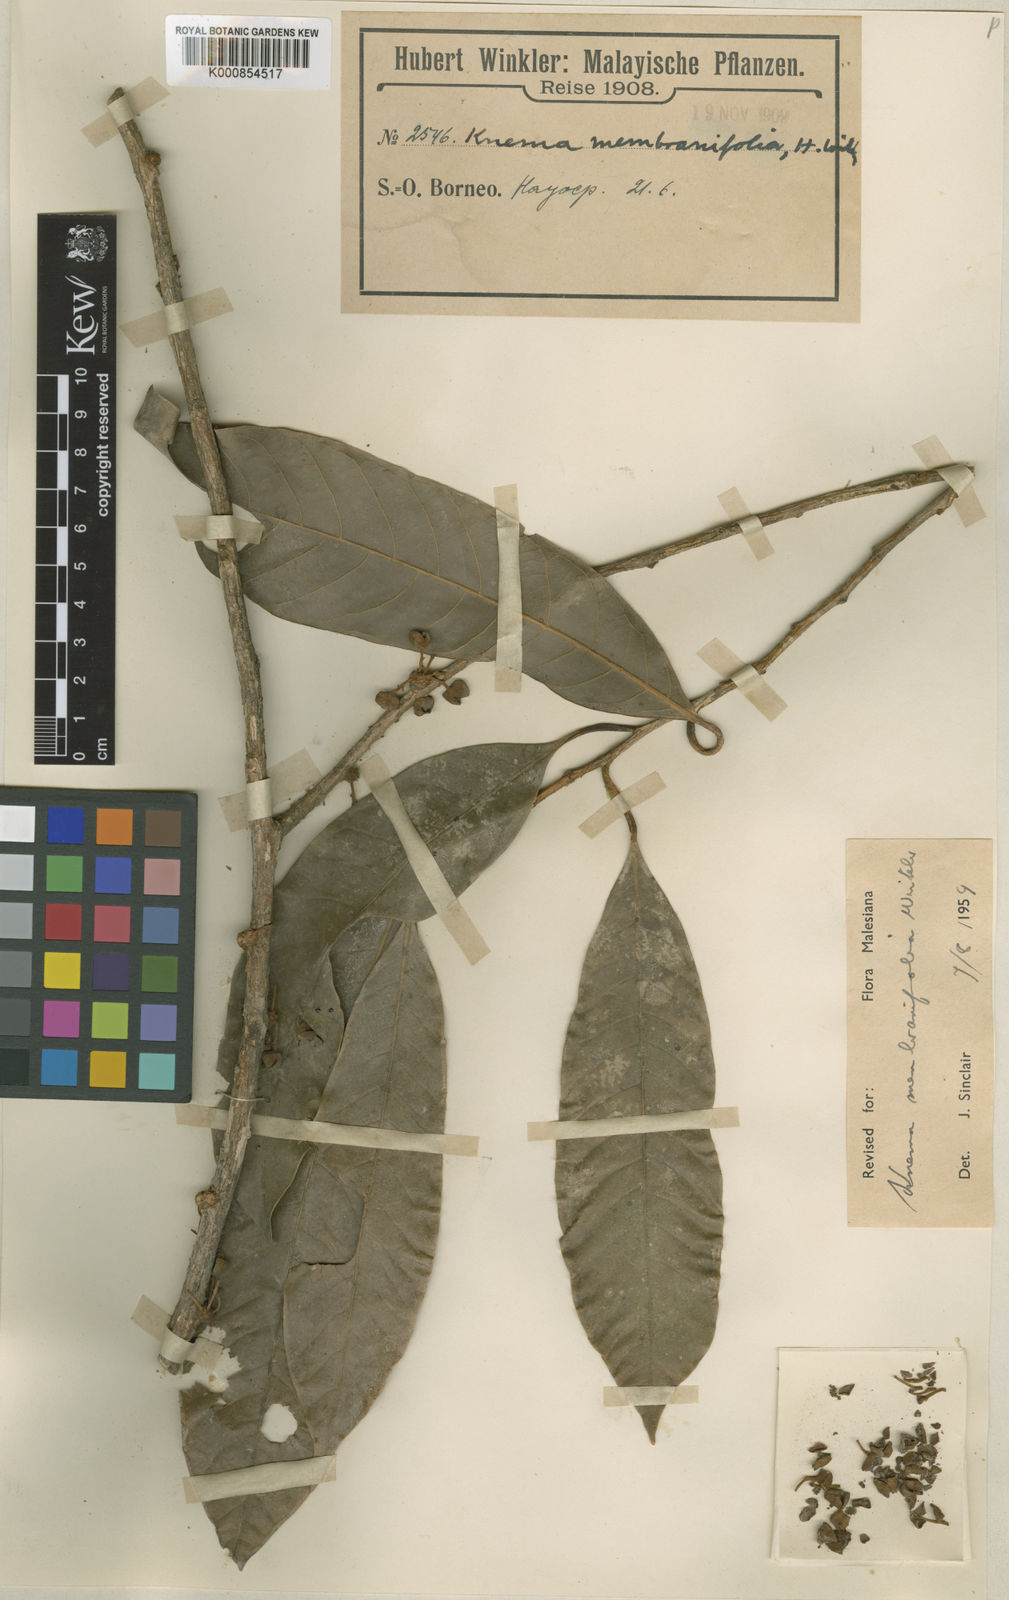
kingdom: Plantae
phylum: Tracheophyta
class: Magnoliopsida
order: Magnoliales
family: Myristicaceae
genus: Knema
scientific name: Knema membranifolia
